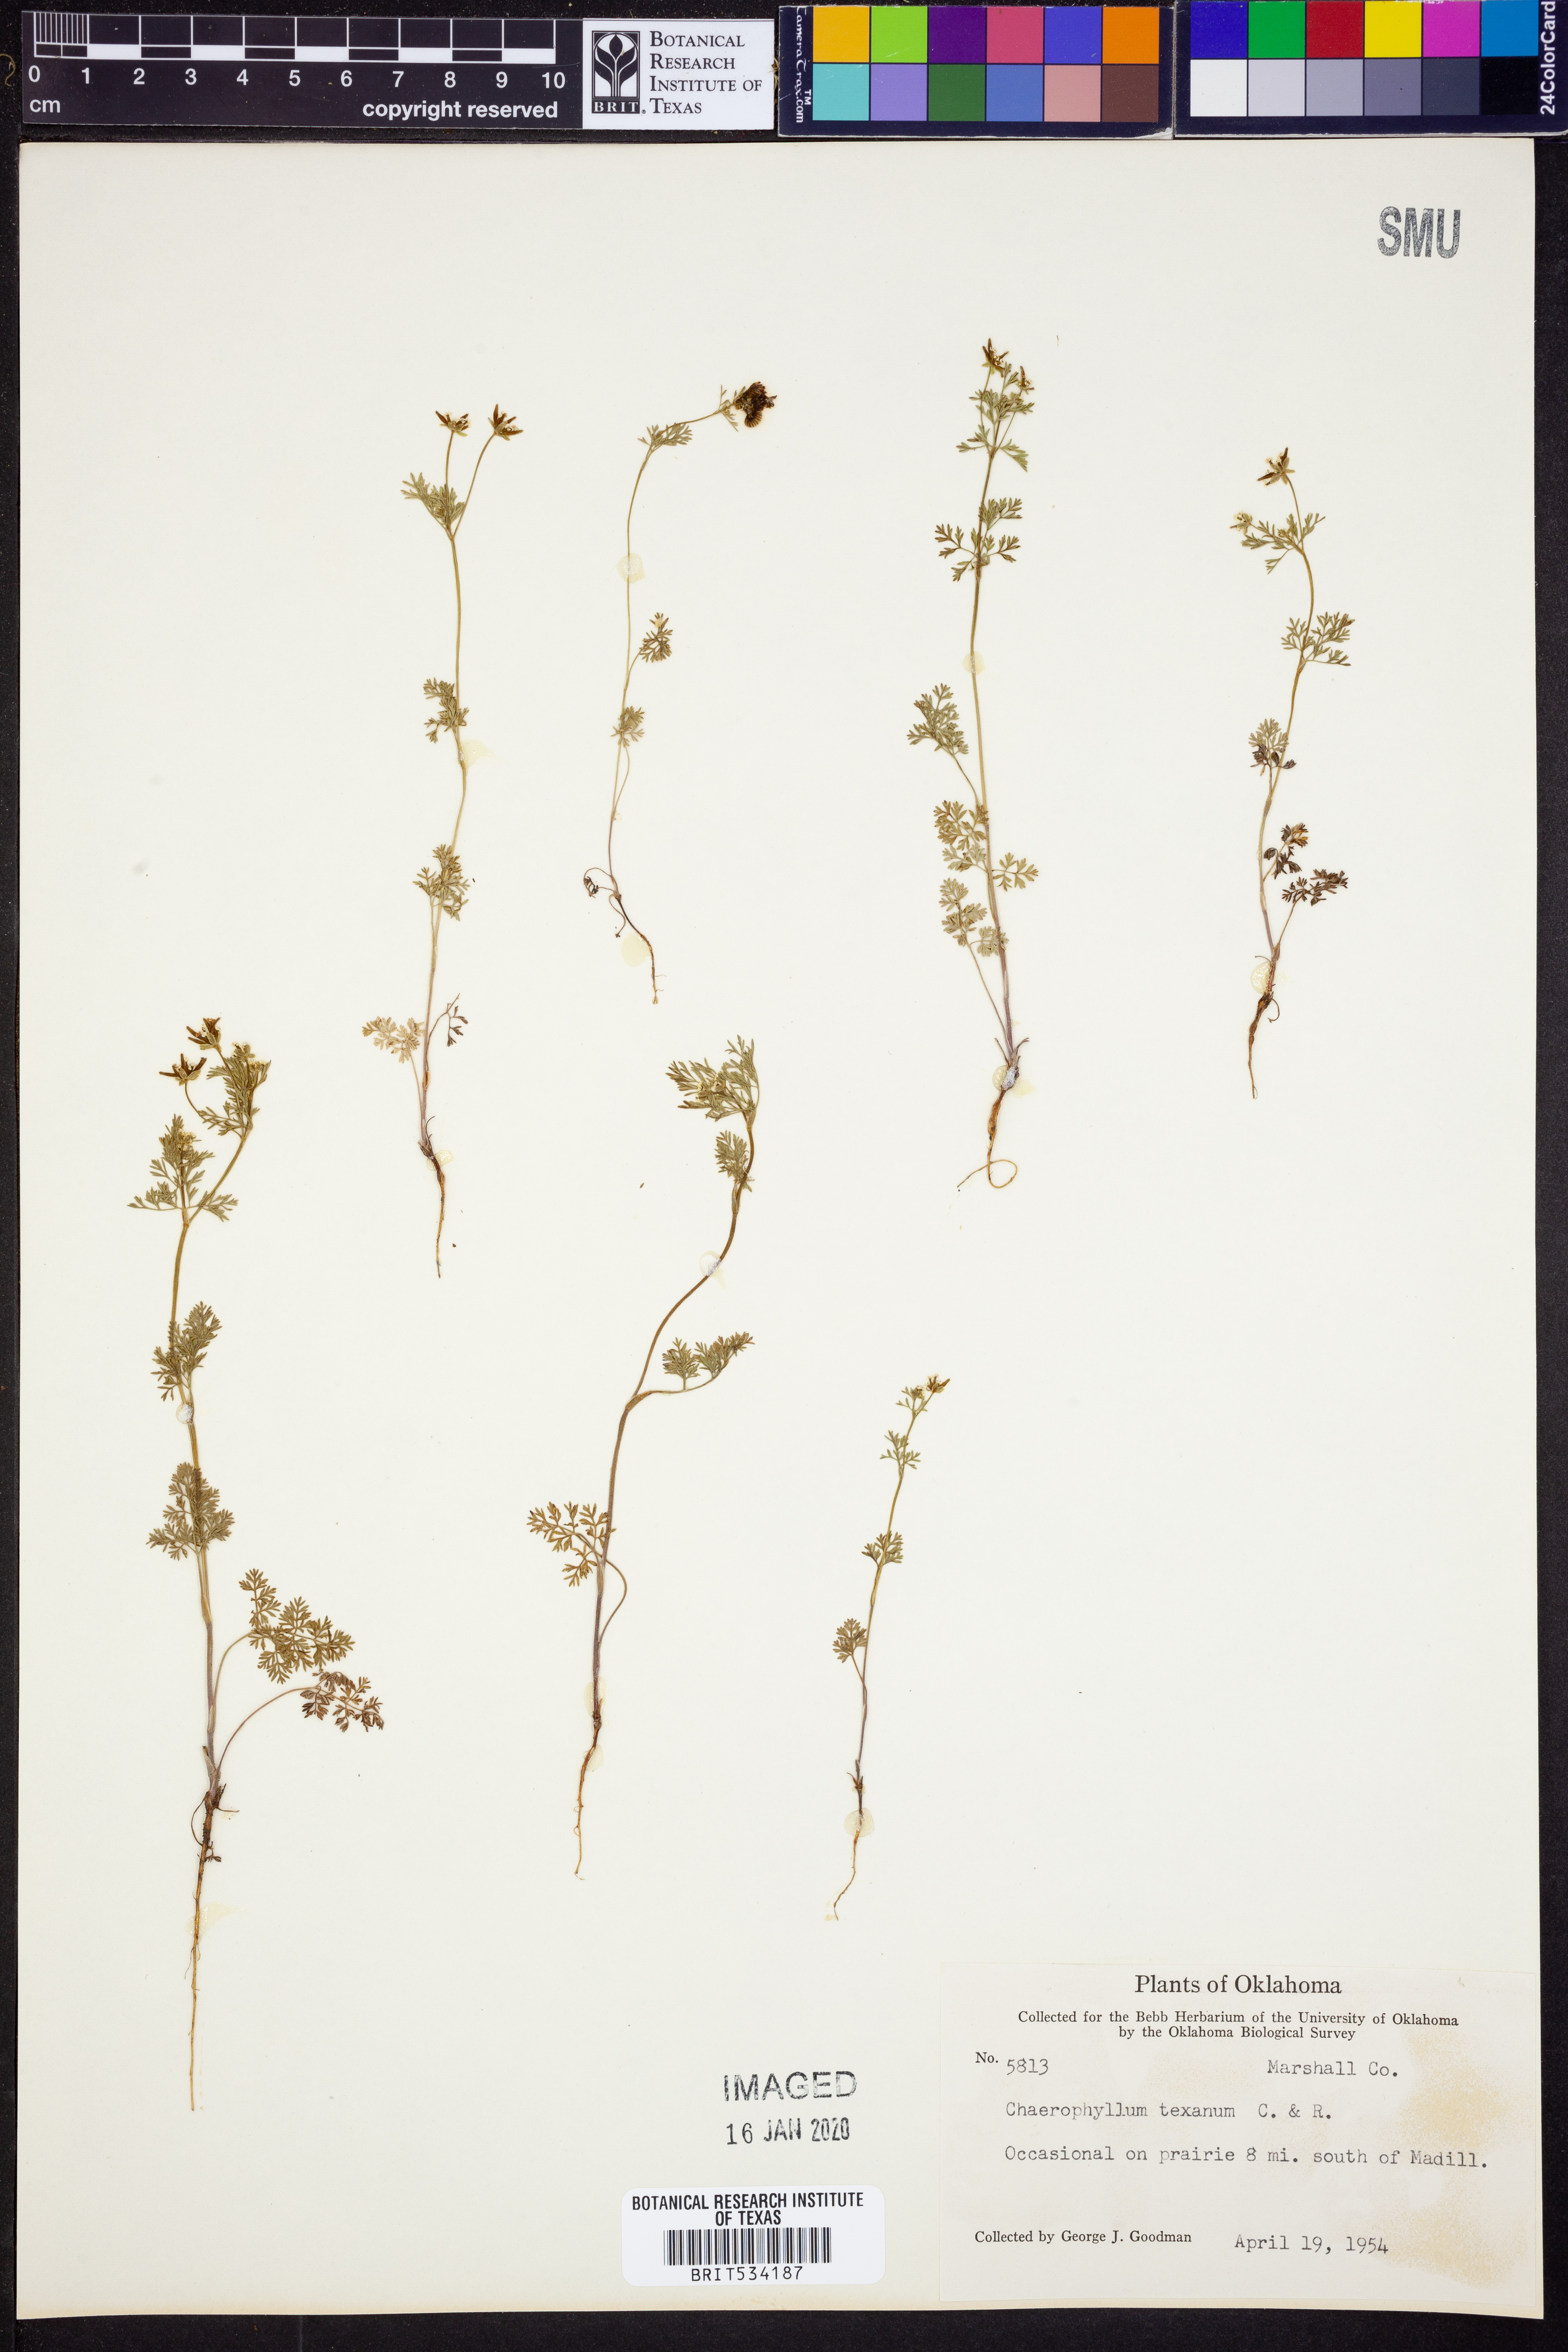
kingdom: Plantae
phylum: Tracheophyta
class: Magnoliopsida
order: Apiales
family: Apiaceae
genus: Chaerophyllum
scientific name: Chaerophyllum tainturieri
